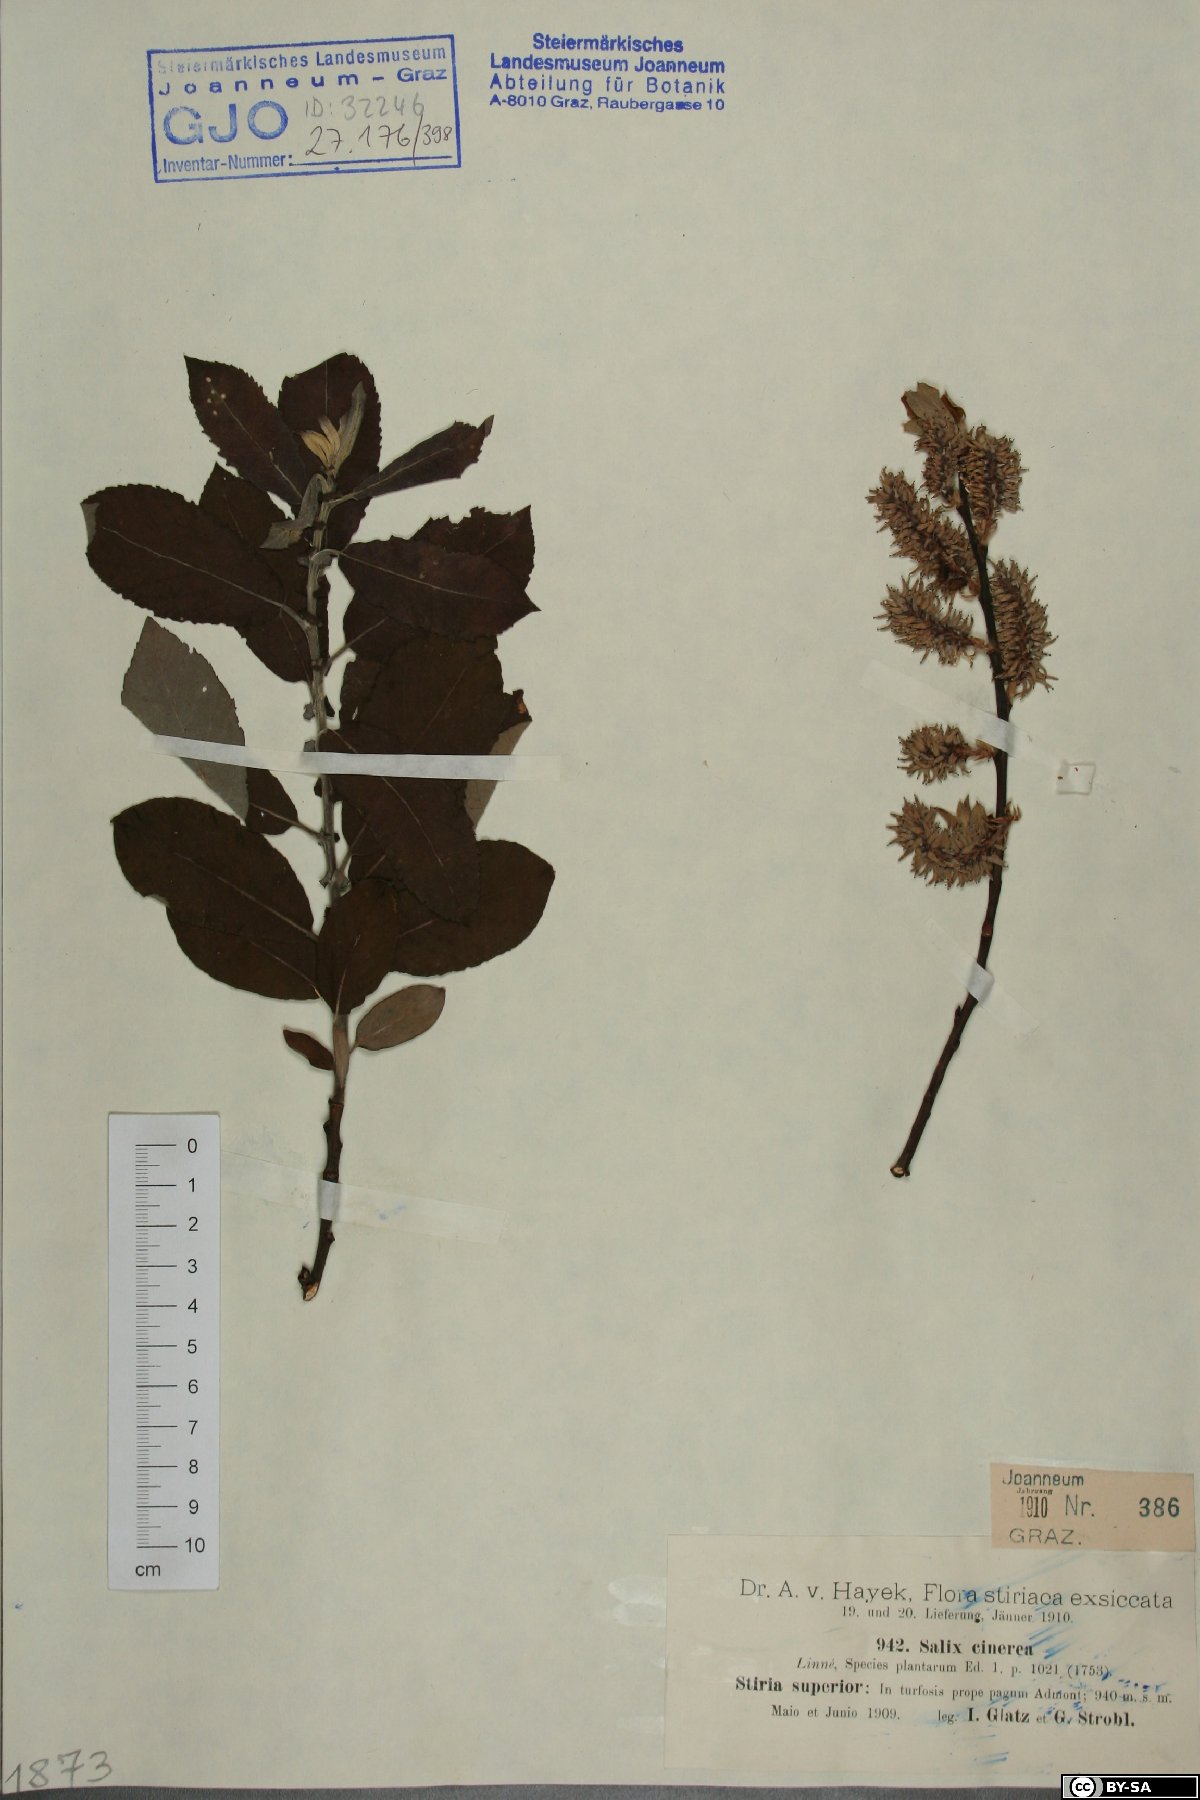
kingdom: Plantae
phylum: Tracheophyta
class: Magnoliopsida
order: Malpighiales
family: Salicaceae
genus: Salix
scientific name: Salix cinerea
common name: Common sallow
